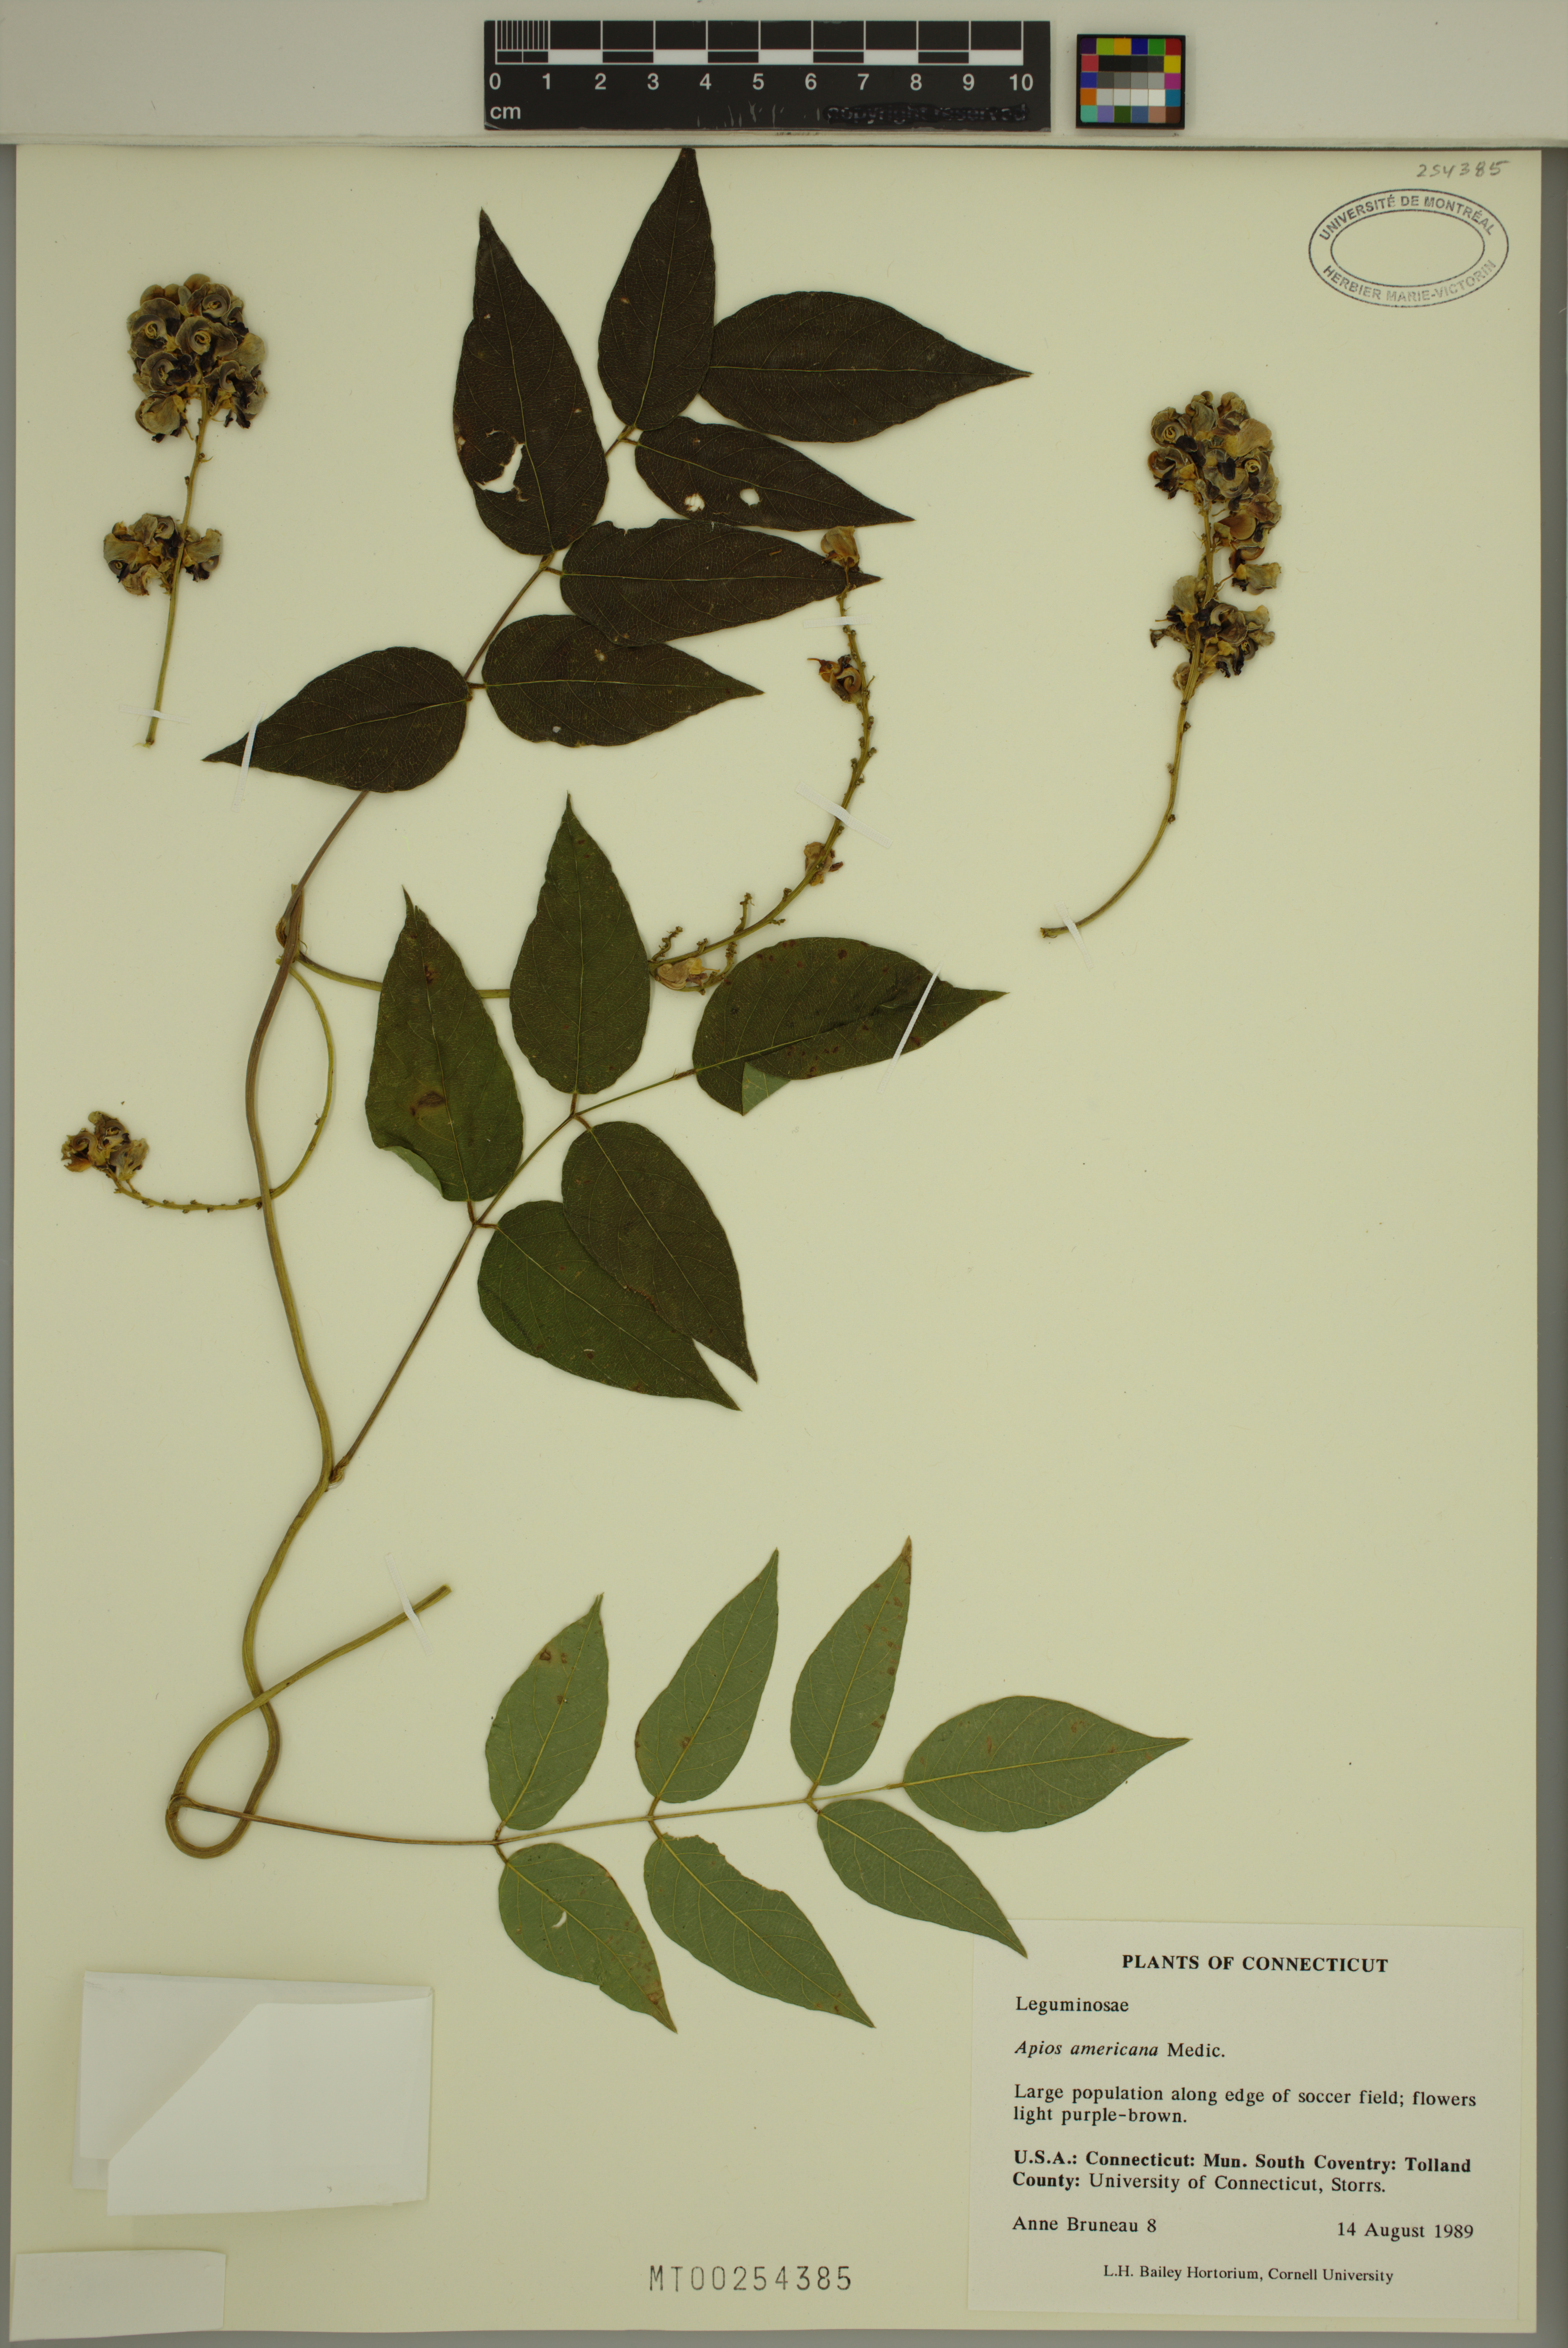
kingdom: Plantae
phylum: Tracheophyta
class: Magnoliopsida
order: Fabales
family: Fabaceae
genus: Apios
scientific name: Apios americana
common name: American potato-bean
